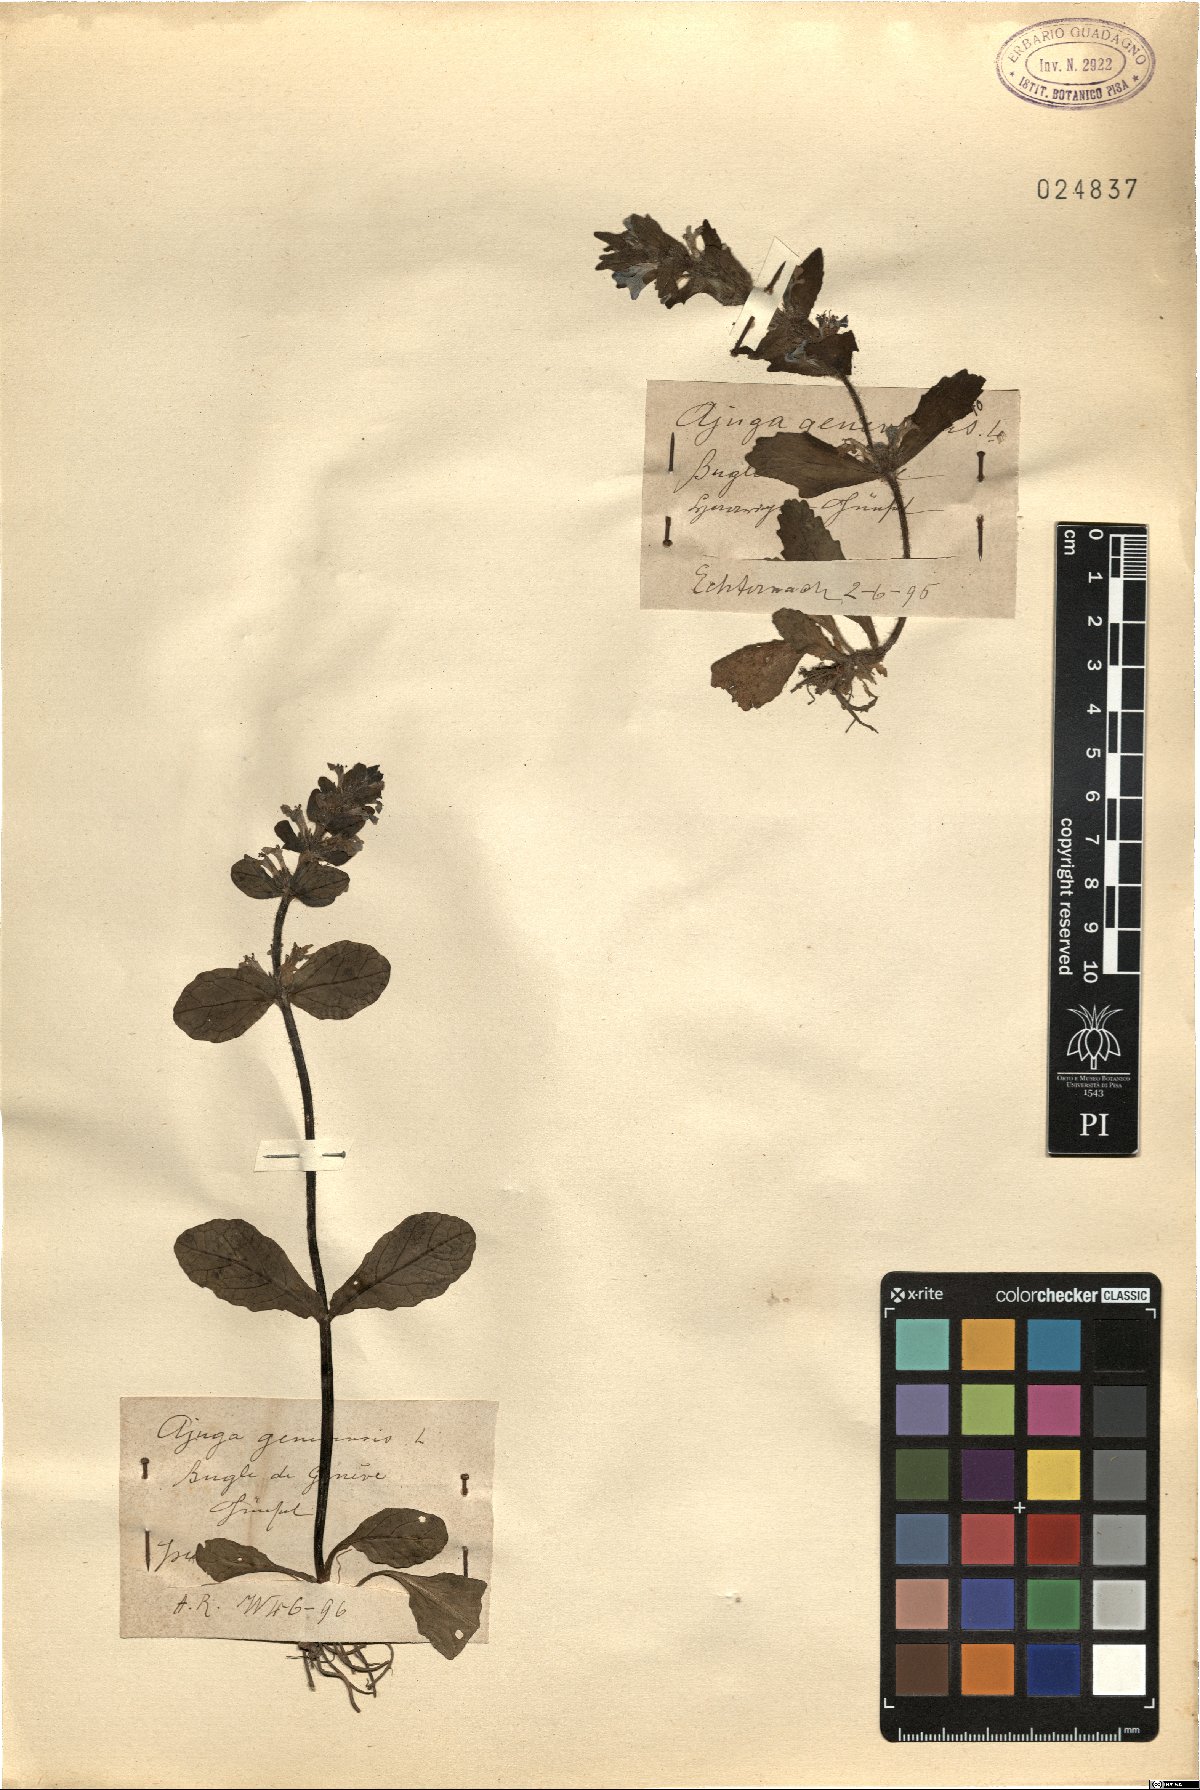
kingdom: Plantae
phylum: Tracheophyta
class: Magnoliopsida
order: Lamiales
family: Lamiaceae
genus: Ajuga
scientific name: Ajuga genevensis
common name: Blue bugle
